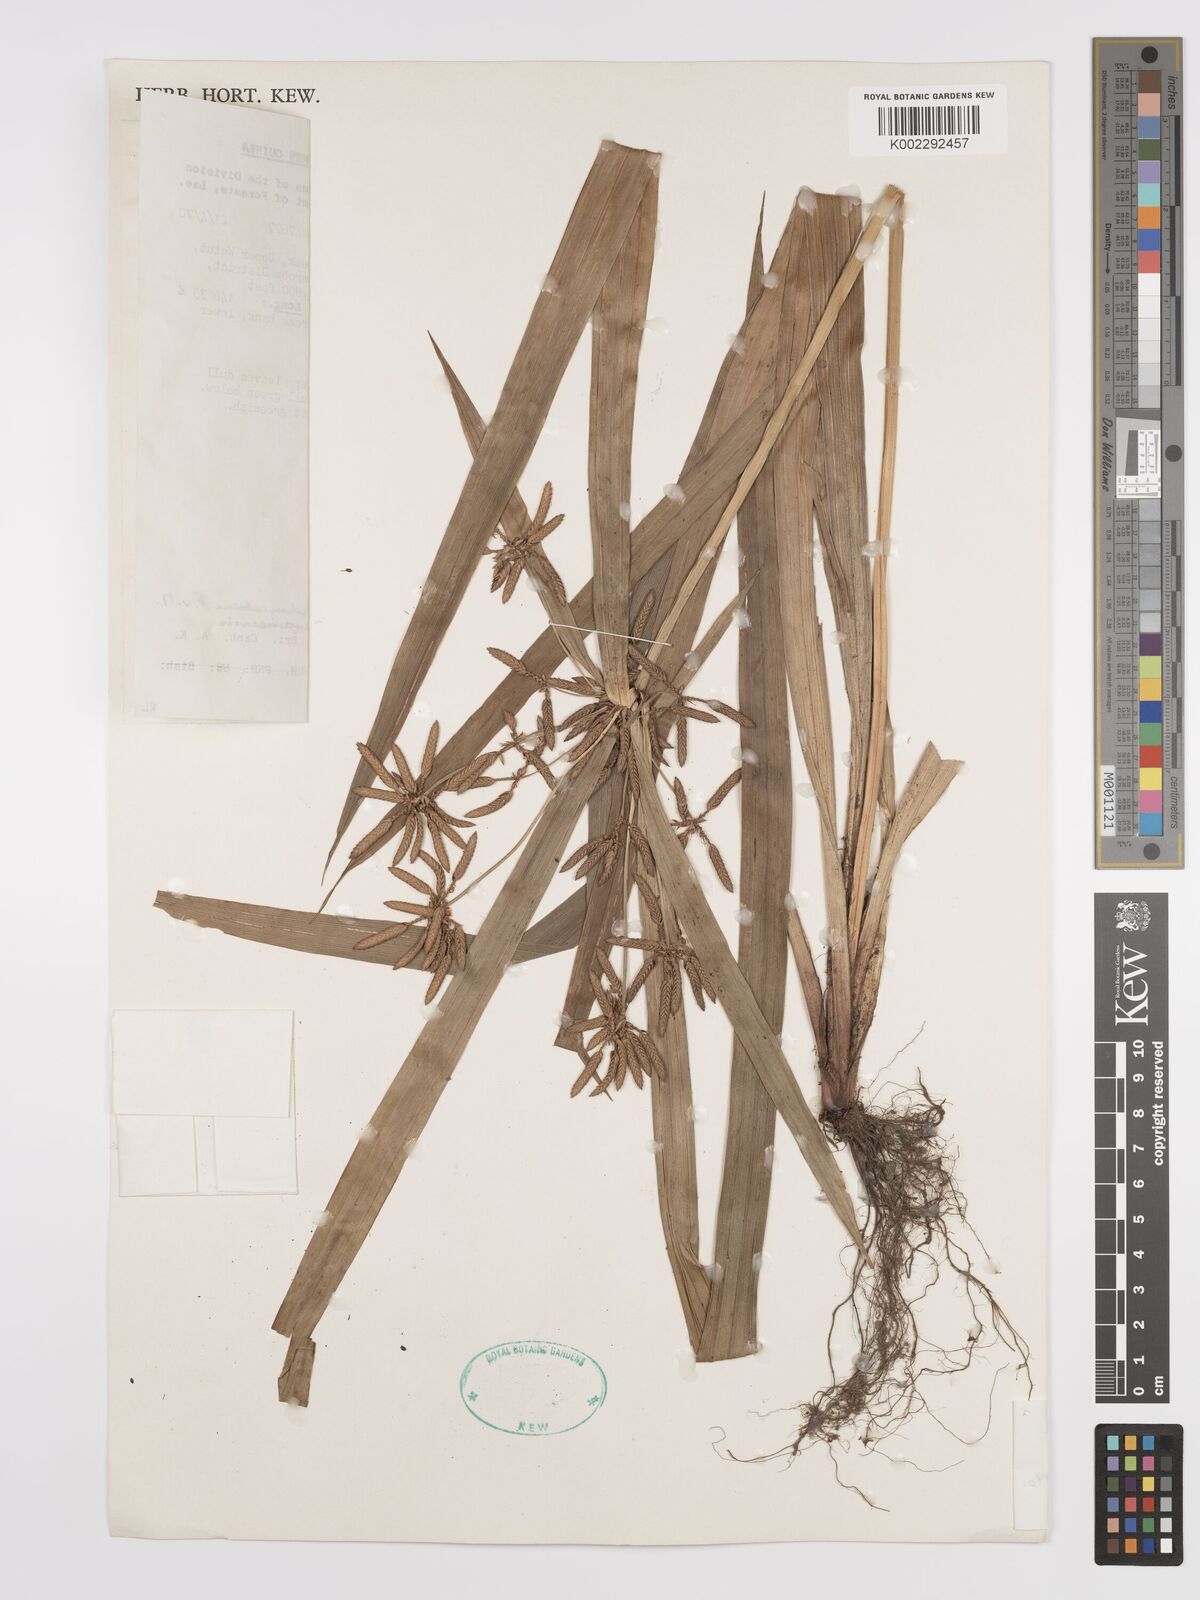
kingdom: Plantae
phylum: Tracheophyta
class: Liliopsida
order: Poales
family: Cyperaceae
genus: Cyperus
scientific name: Cyperus pedunculosus
